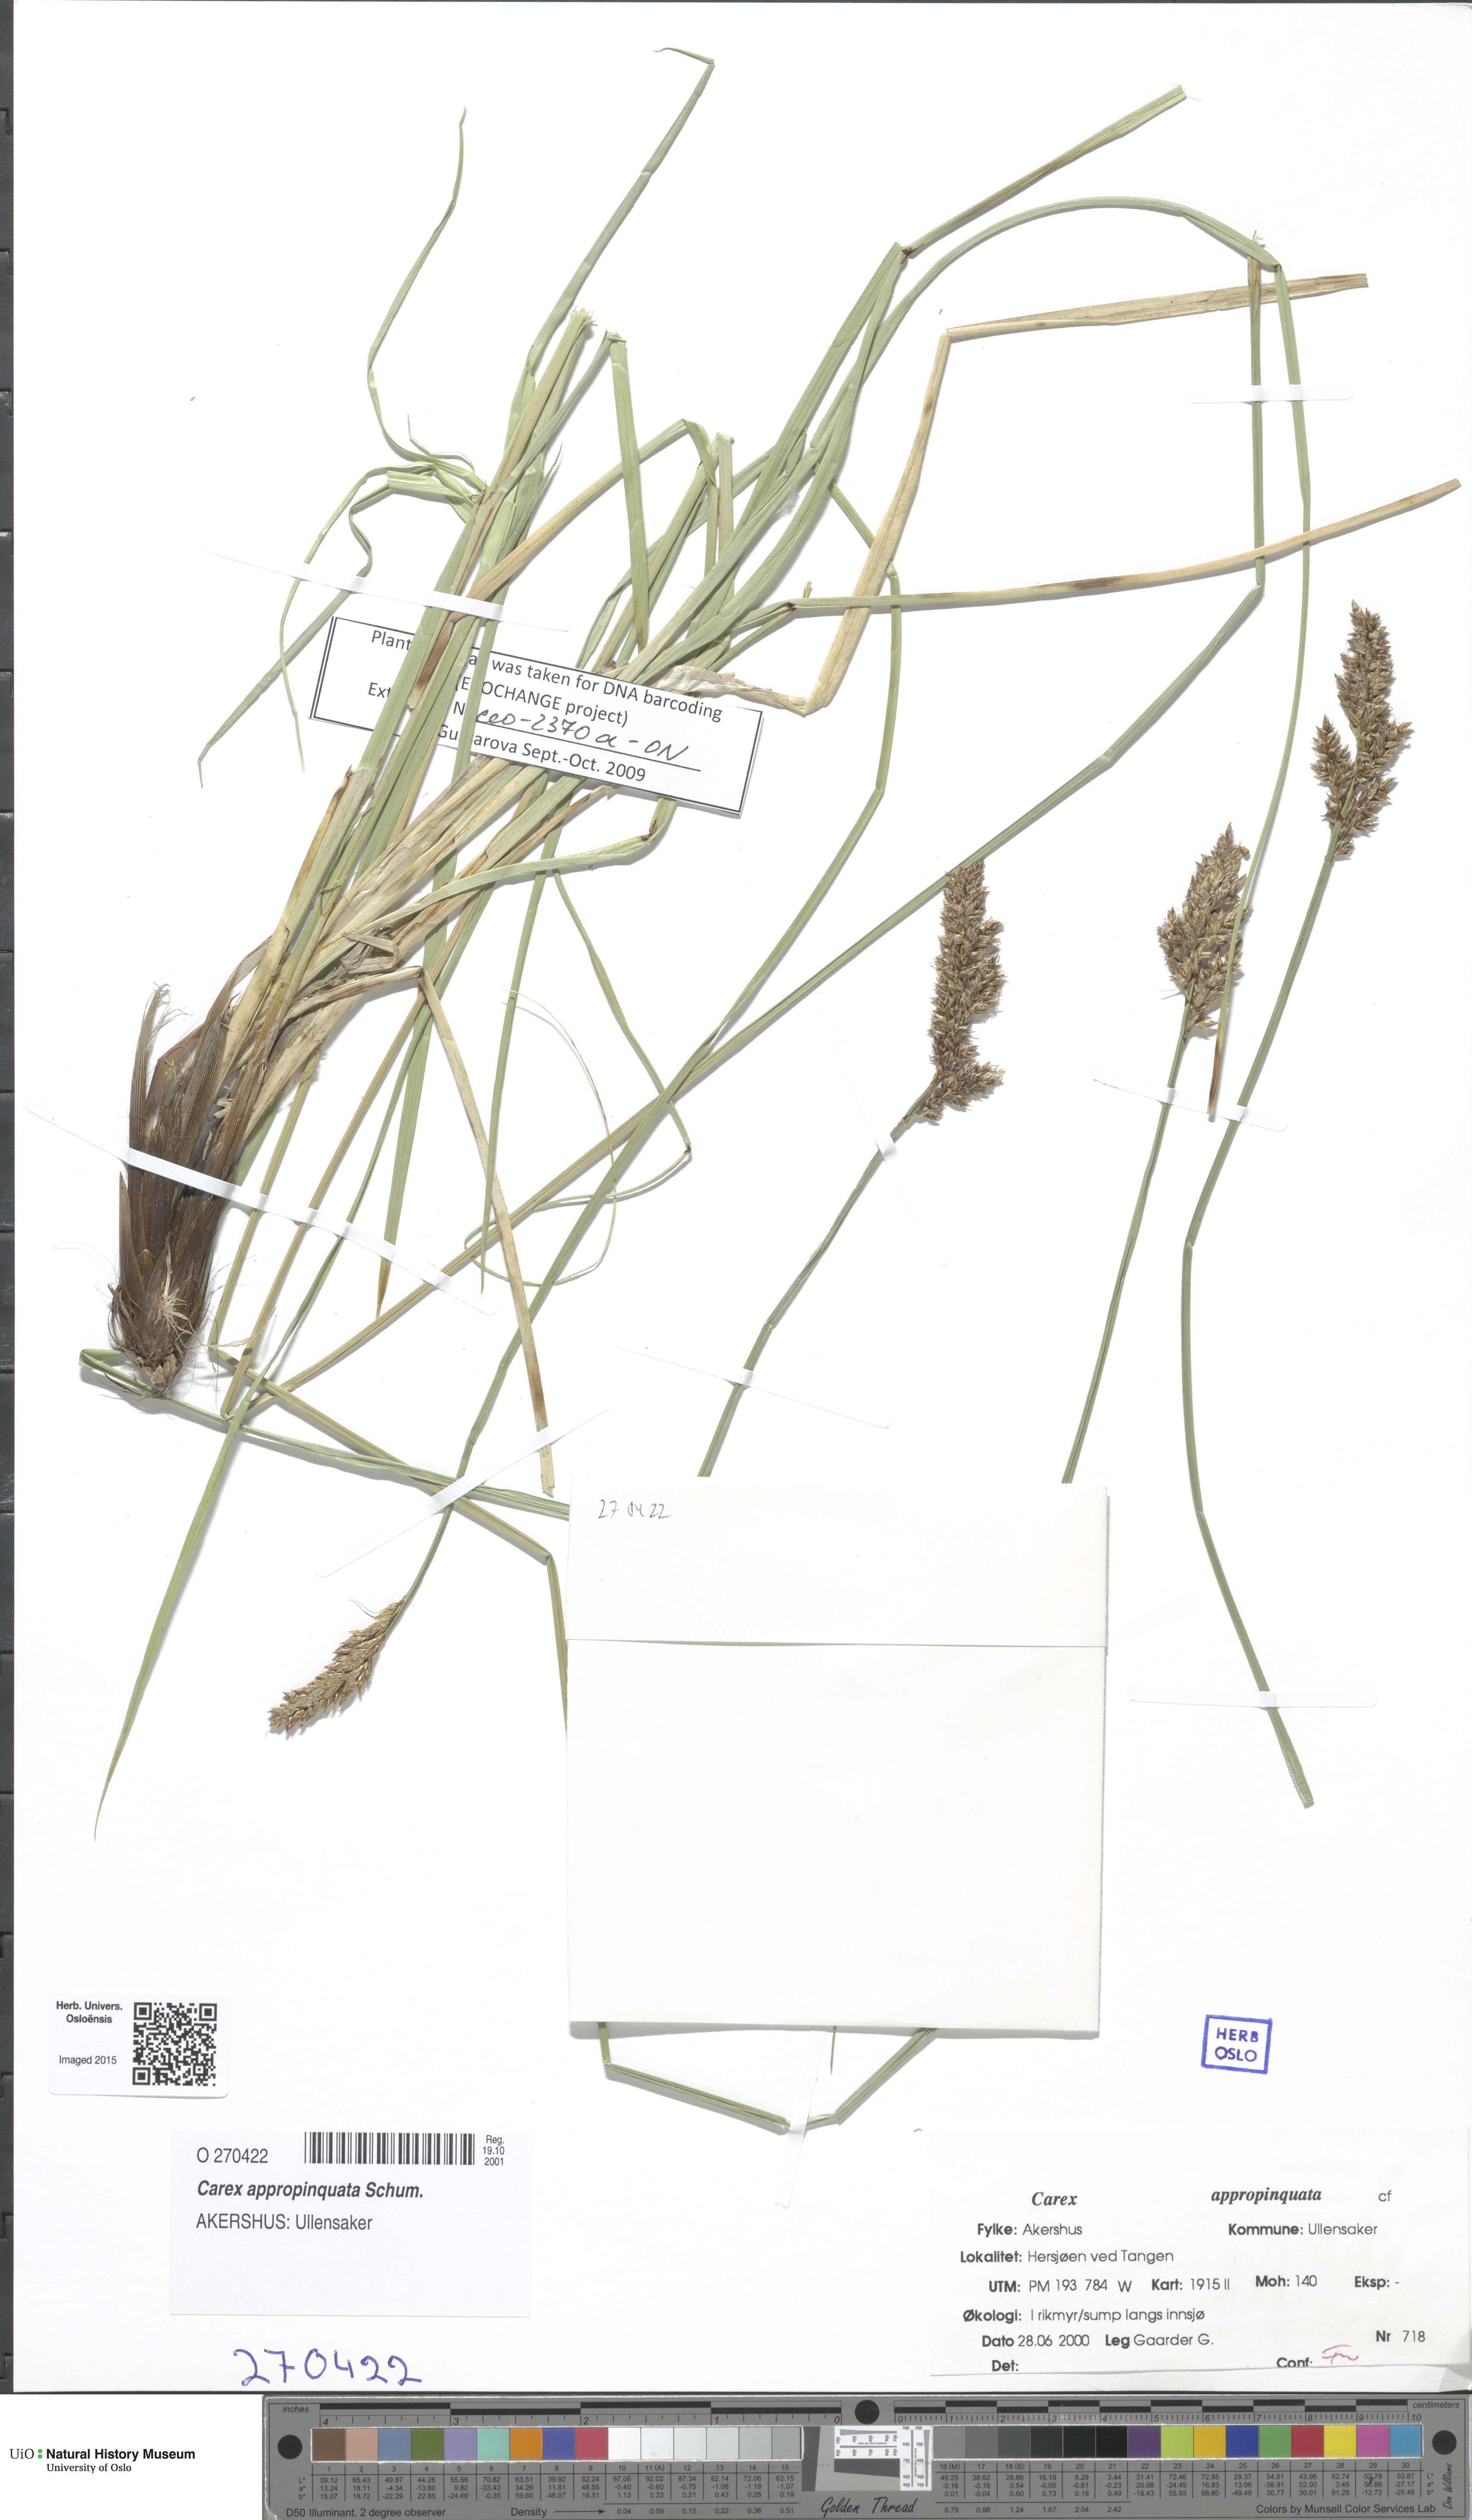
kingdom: Plantae
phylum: Tracheophyta
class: Liliopsida
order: Poales
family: Cyperaceae
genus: Carex
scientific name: Carex appropinquata
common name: Fibrous tussock-sedge
